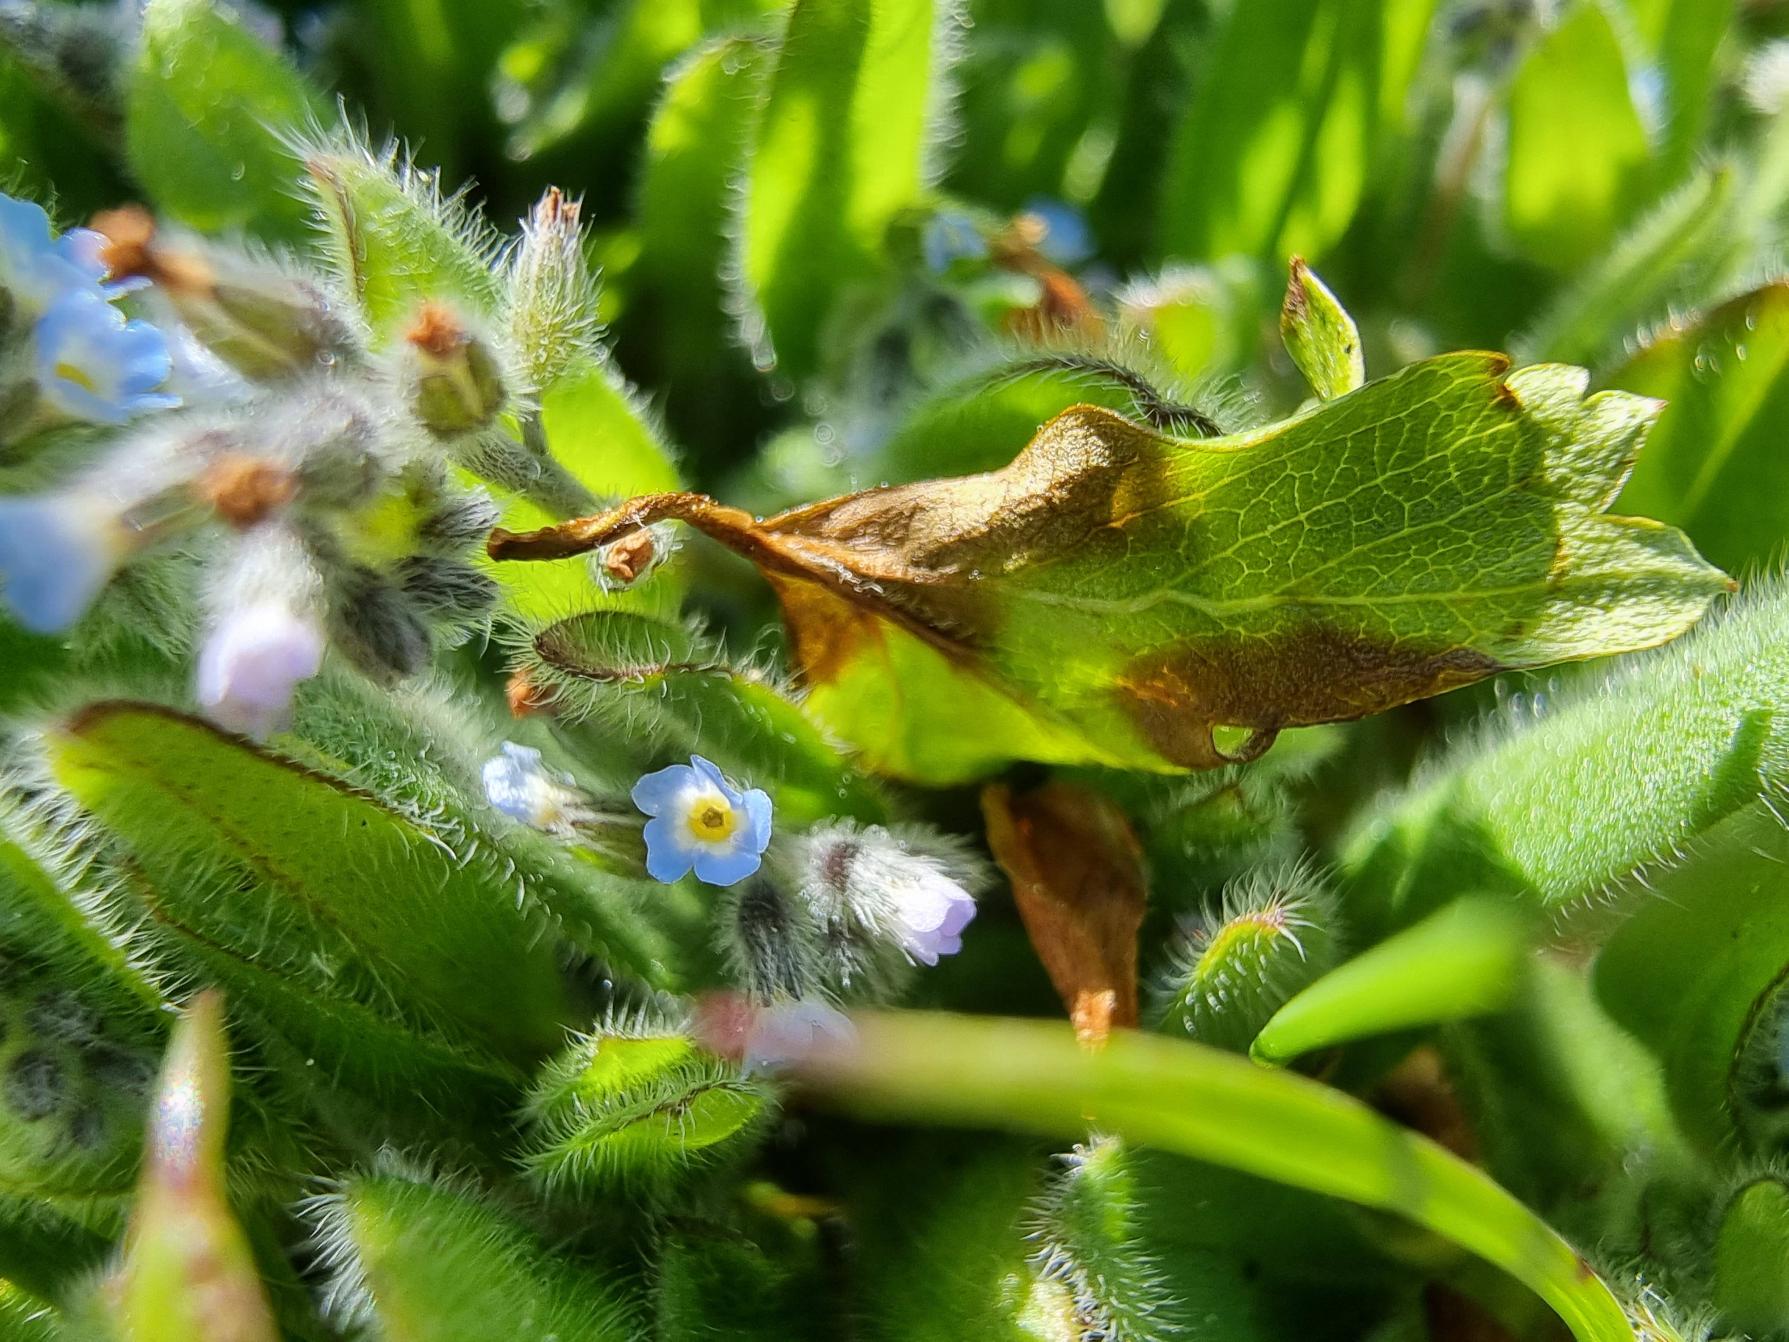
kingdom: Plantae
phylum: Tracheophyta
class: Magnoliopsida
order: Boraginales
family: Boraginaceae
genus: Myosotis
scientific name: Myosotis ramosissima
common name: Bakke-forglemmigej
